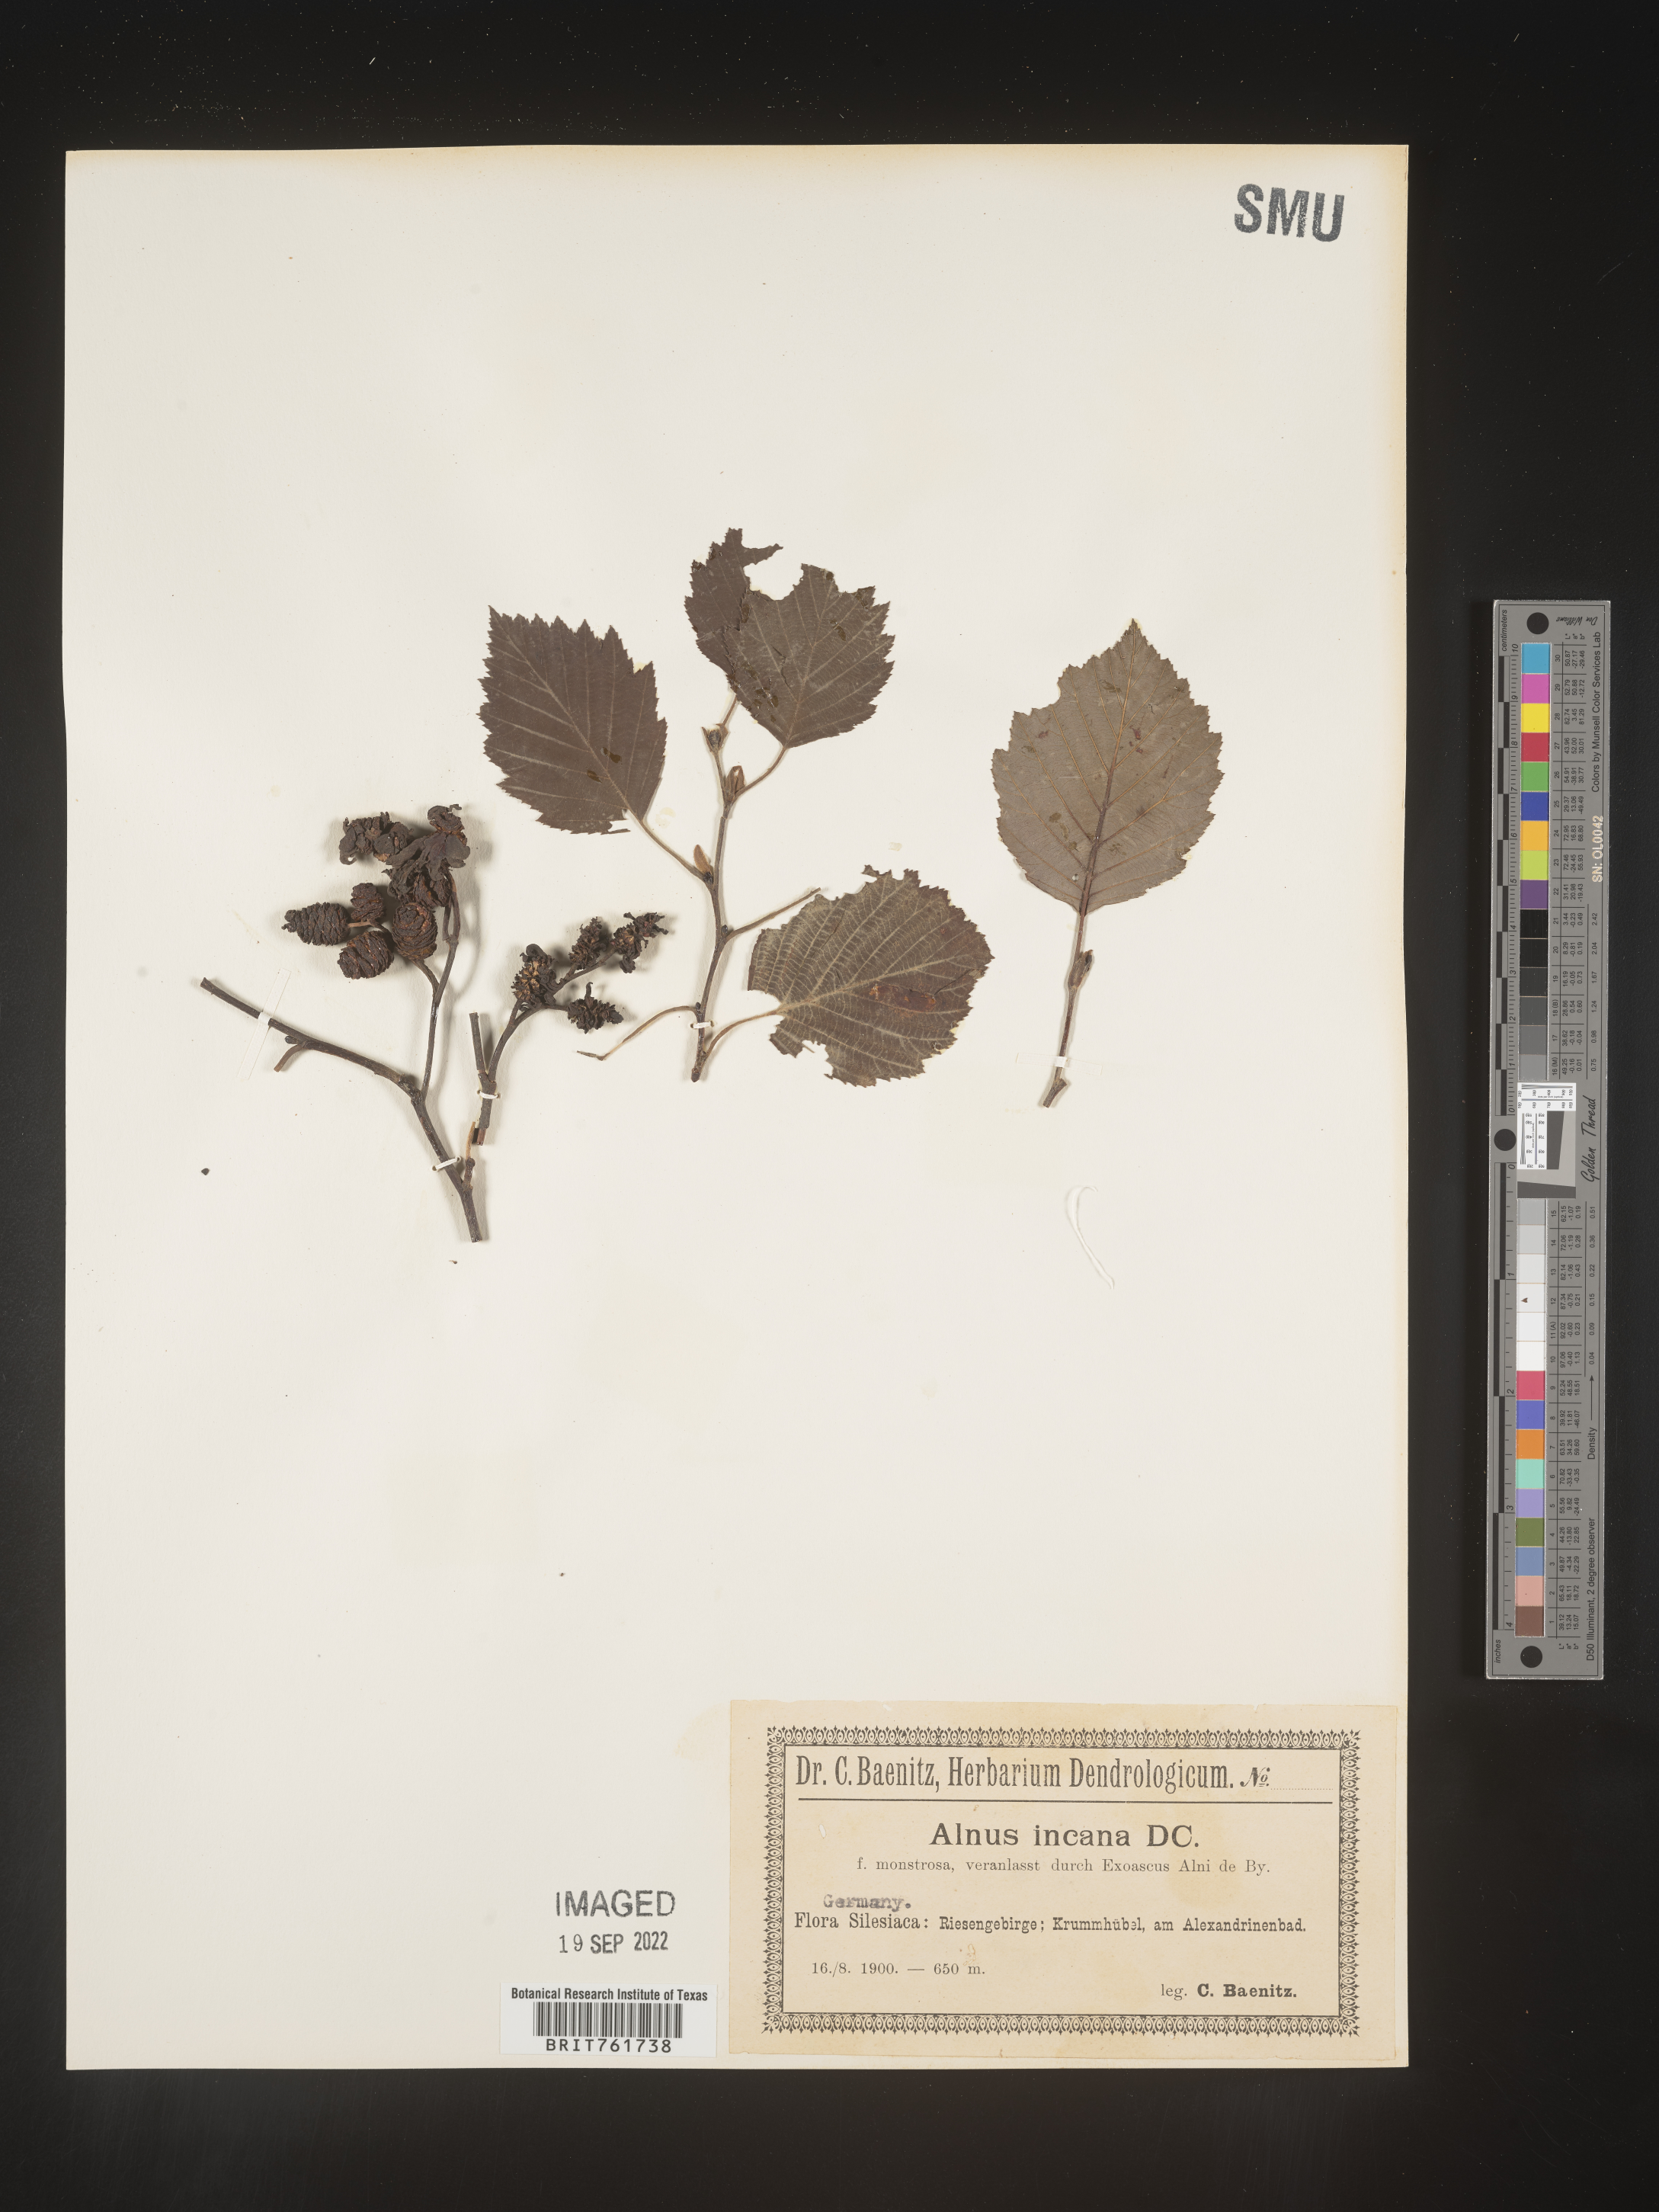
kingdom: Plantae
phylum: Tracheophyta
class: Magnoliopsida
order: Fagales
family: Betulaceae
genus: Alnus
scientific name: Alnus
